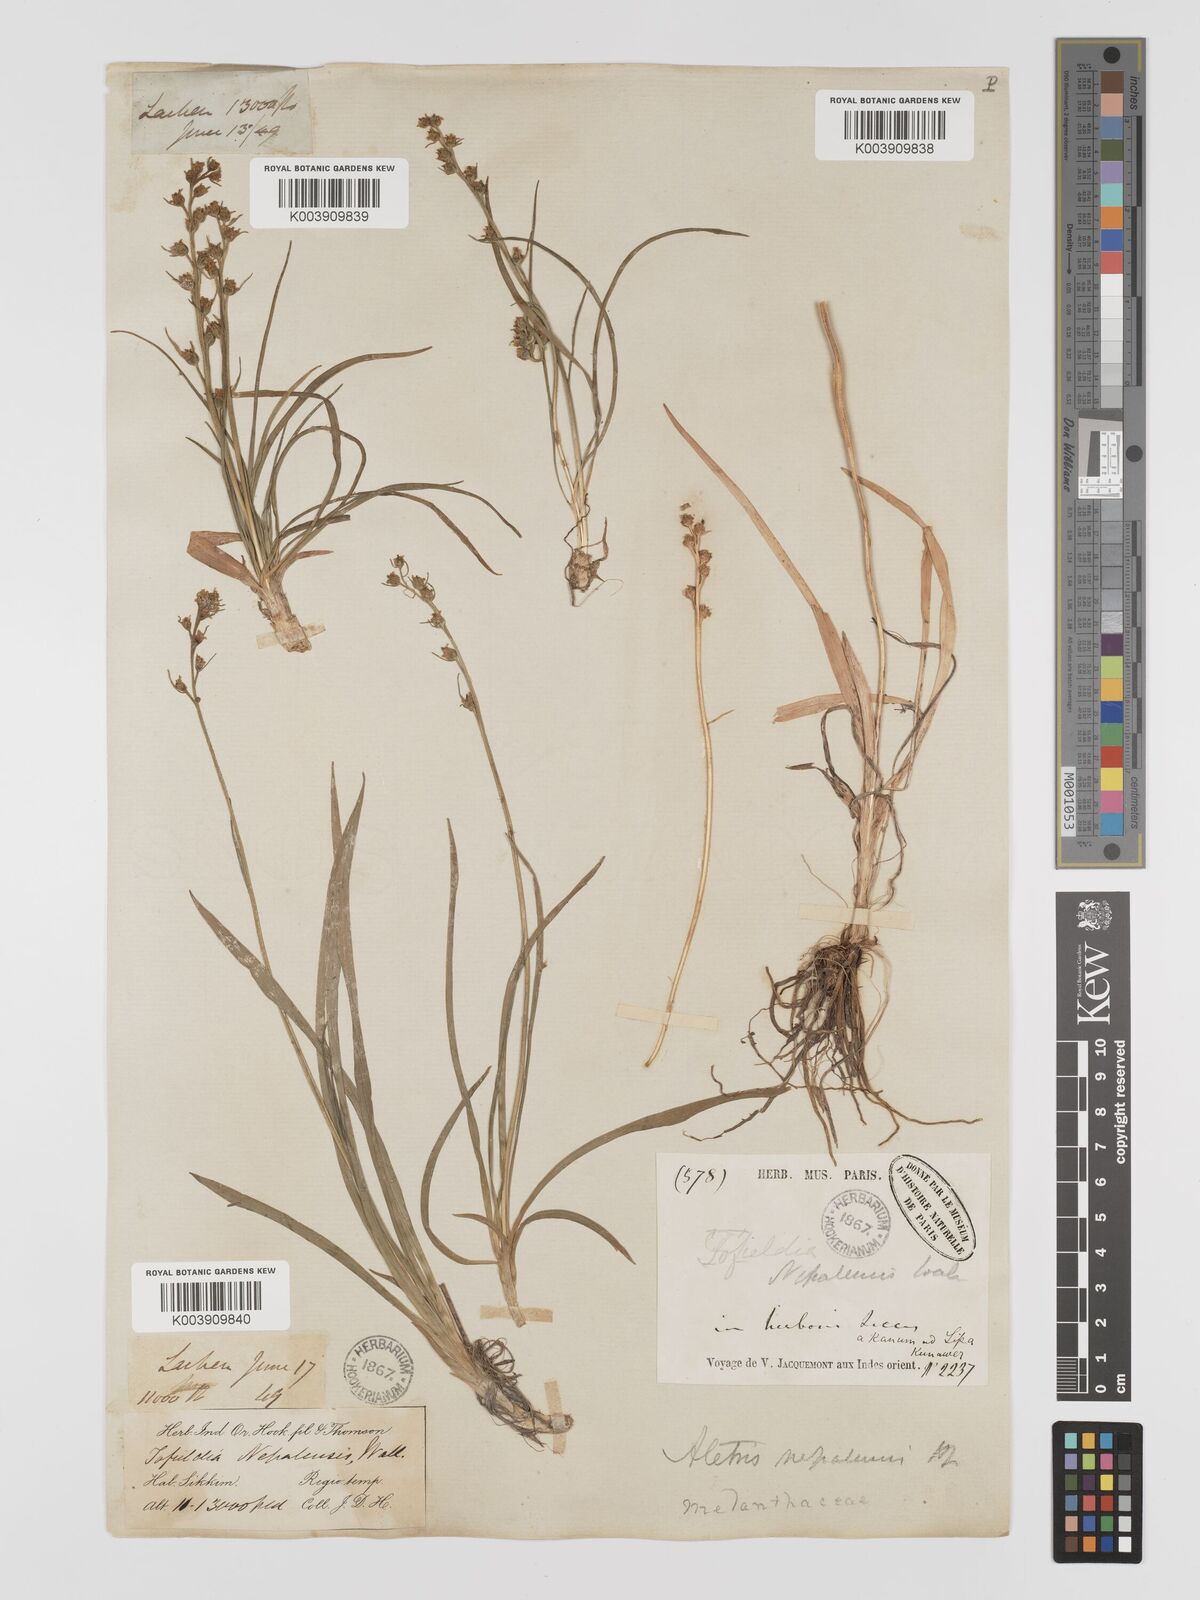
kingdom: Plantae
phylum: Tracheophyta
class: Liliopsida
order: Dioscoreales
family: Nartheciaceae
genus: Aletris
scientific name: Aletris pauciflora
